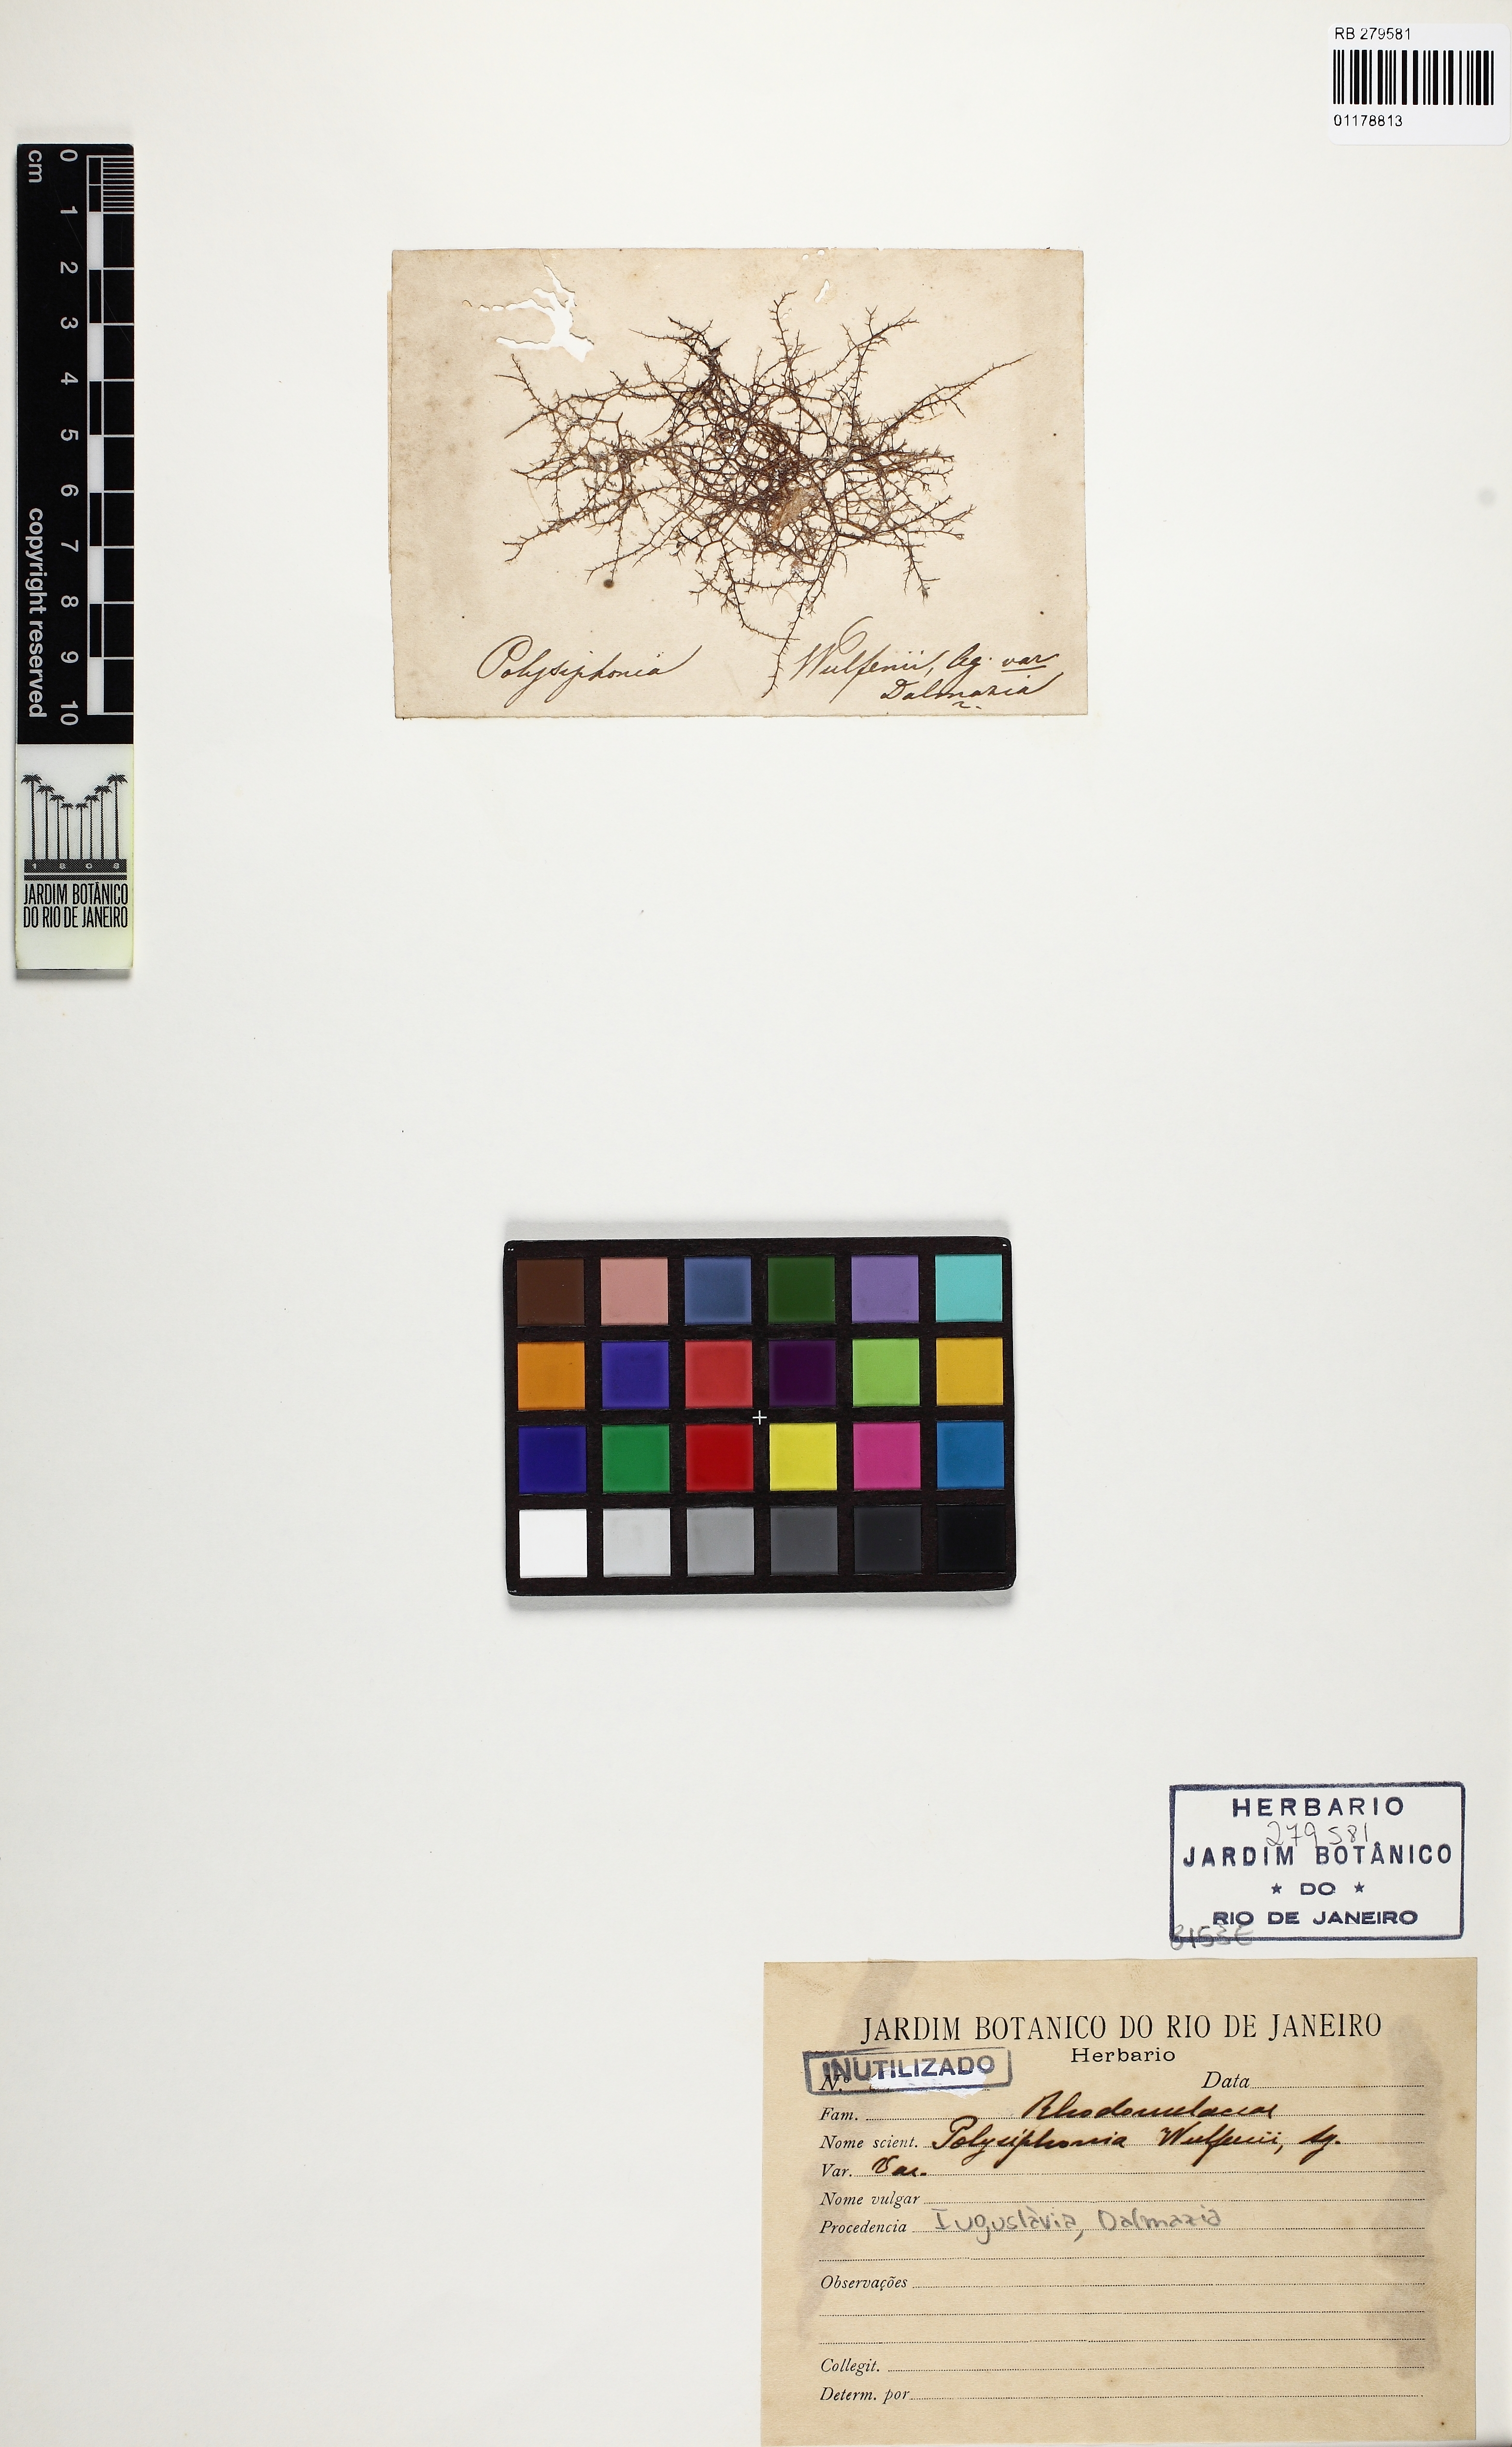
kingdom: Plantae
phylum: Rhodophyta
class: Florideophyceae
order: Ceramiales
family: Rhodomelaceae
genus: Vertebrata
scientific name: Vertebrata fruticulosa
